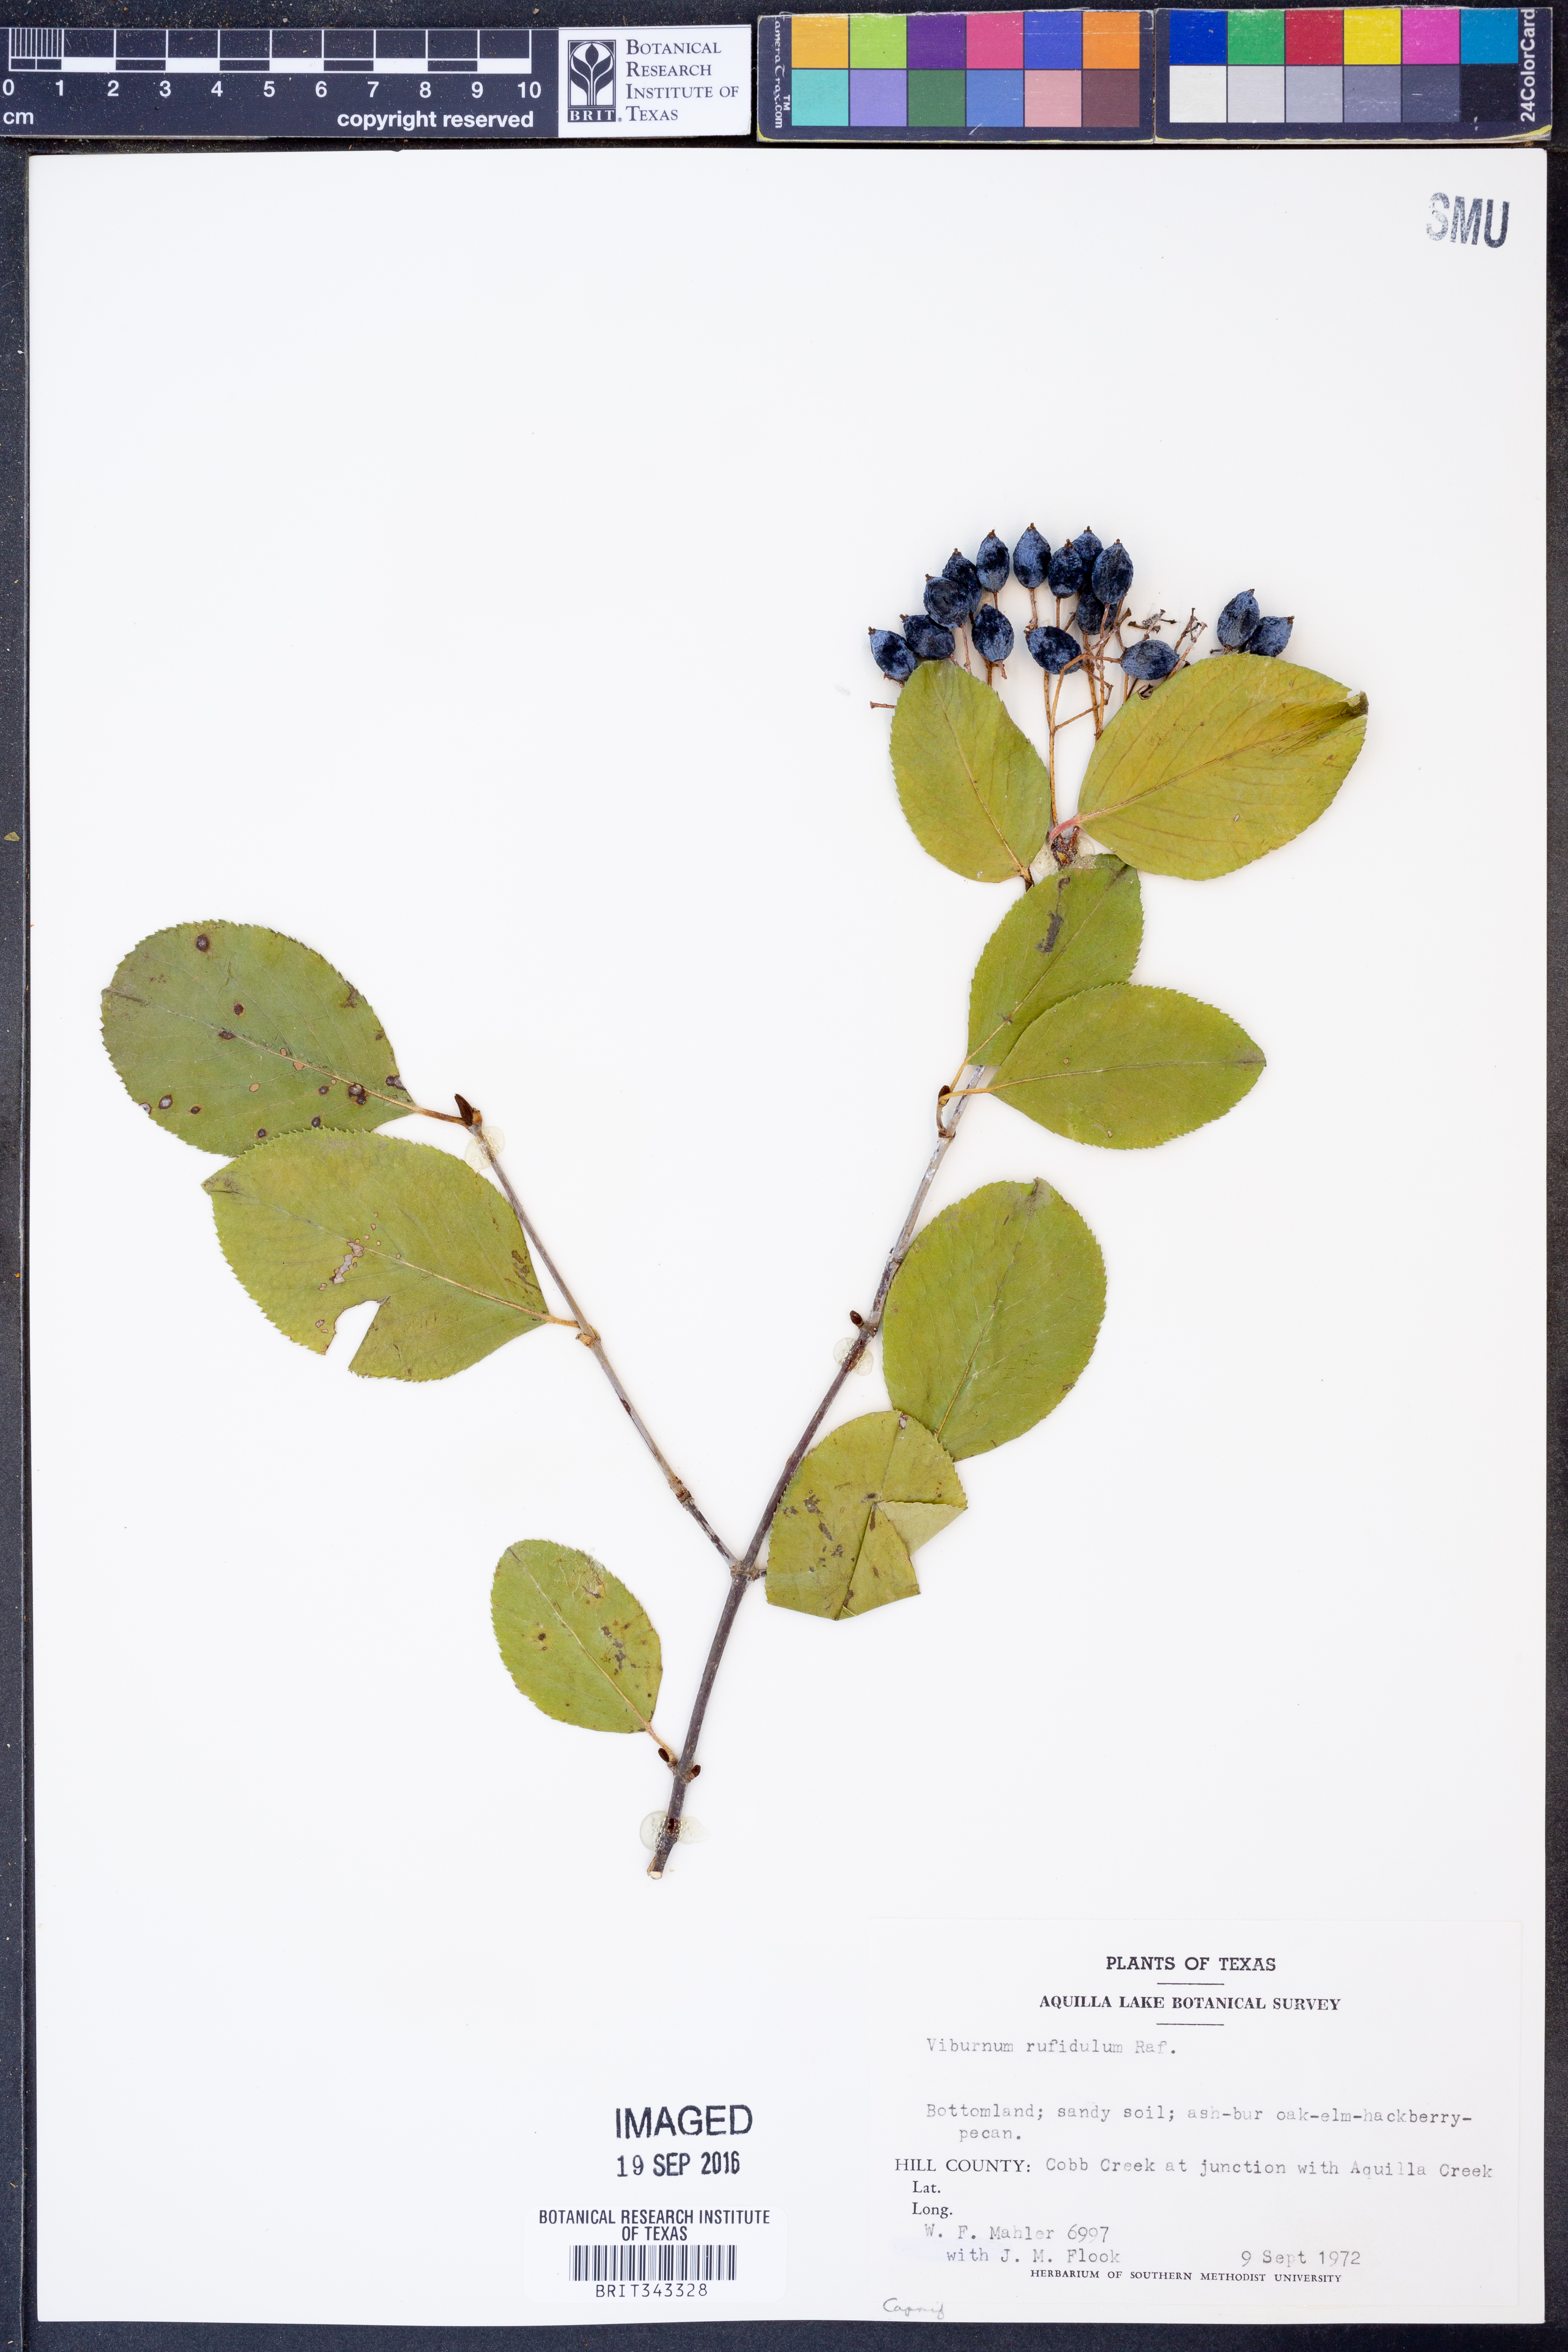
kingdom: Plantae
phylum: Tracheophyta
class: Magnoliopsida
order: Dipsacales
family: Viburnaceae
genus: Viburnum
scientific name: Viburnum rufidulum
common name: Blue haw
